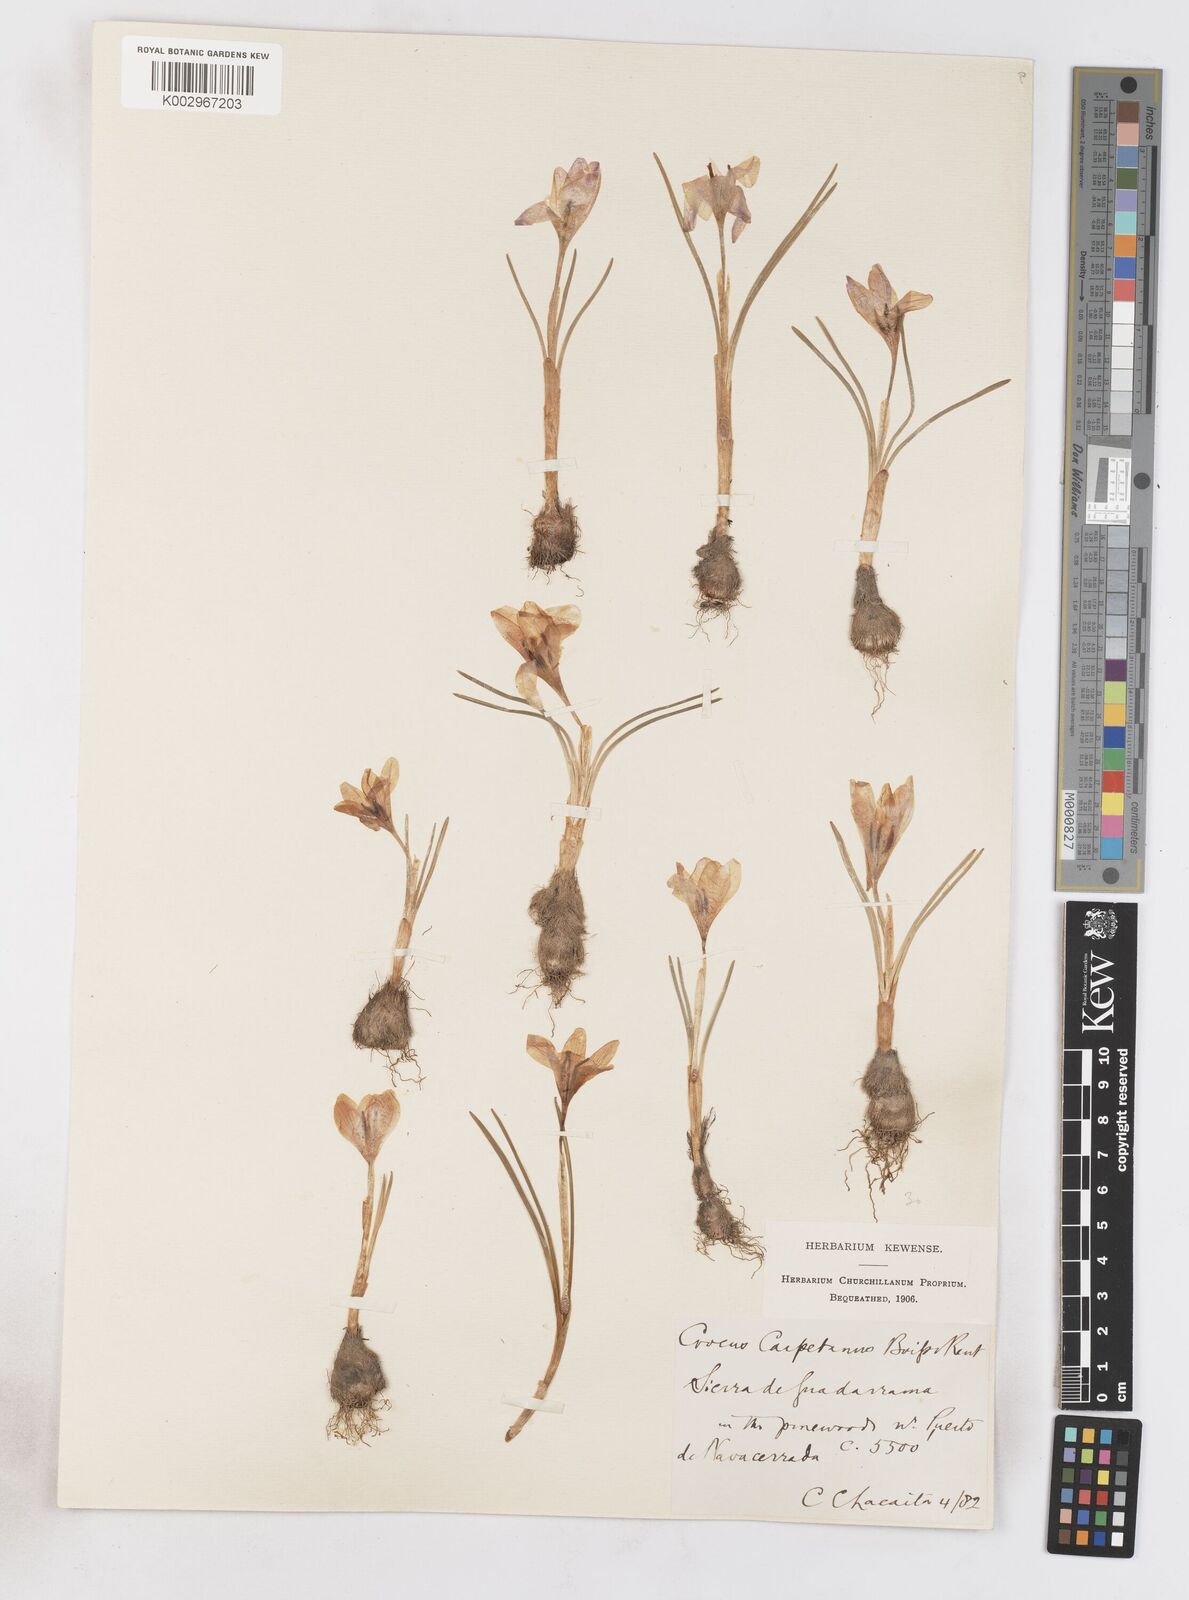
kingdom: Plantae
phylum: Tracheophyta
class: Liliopsida
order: Asparagales
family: Iridaceae
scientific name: Iridaceae
